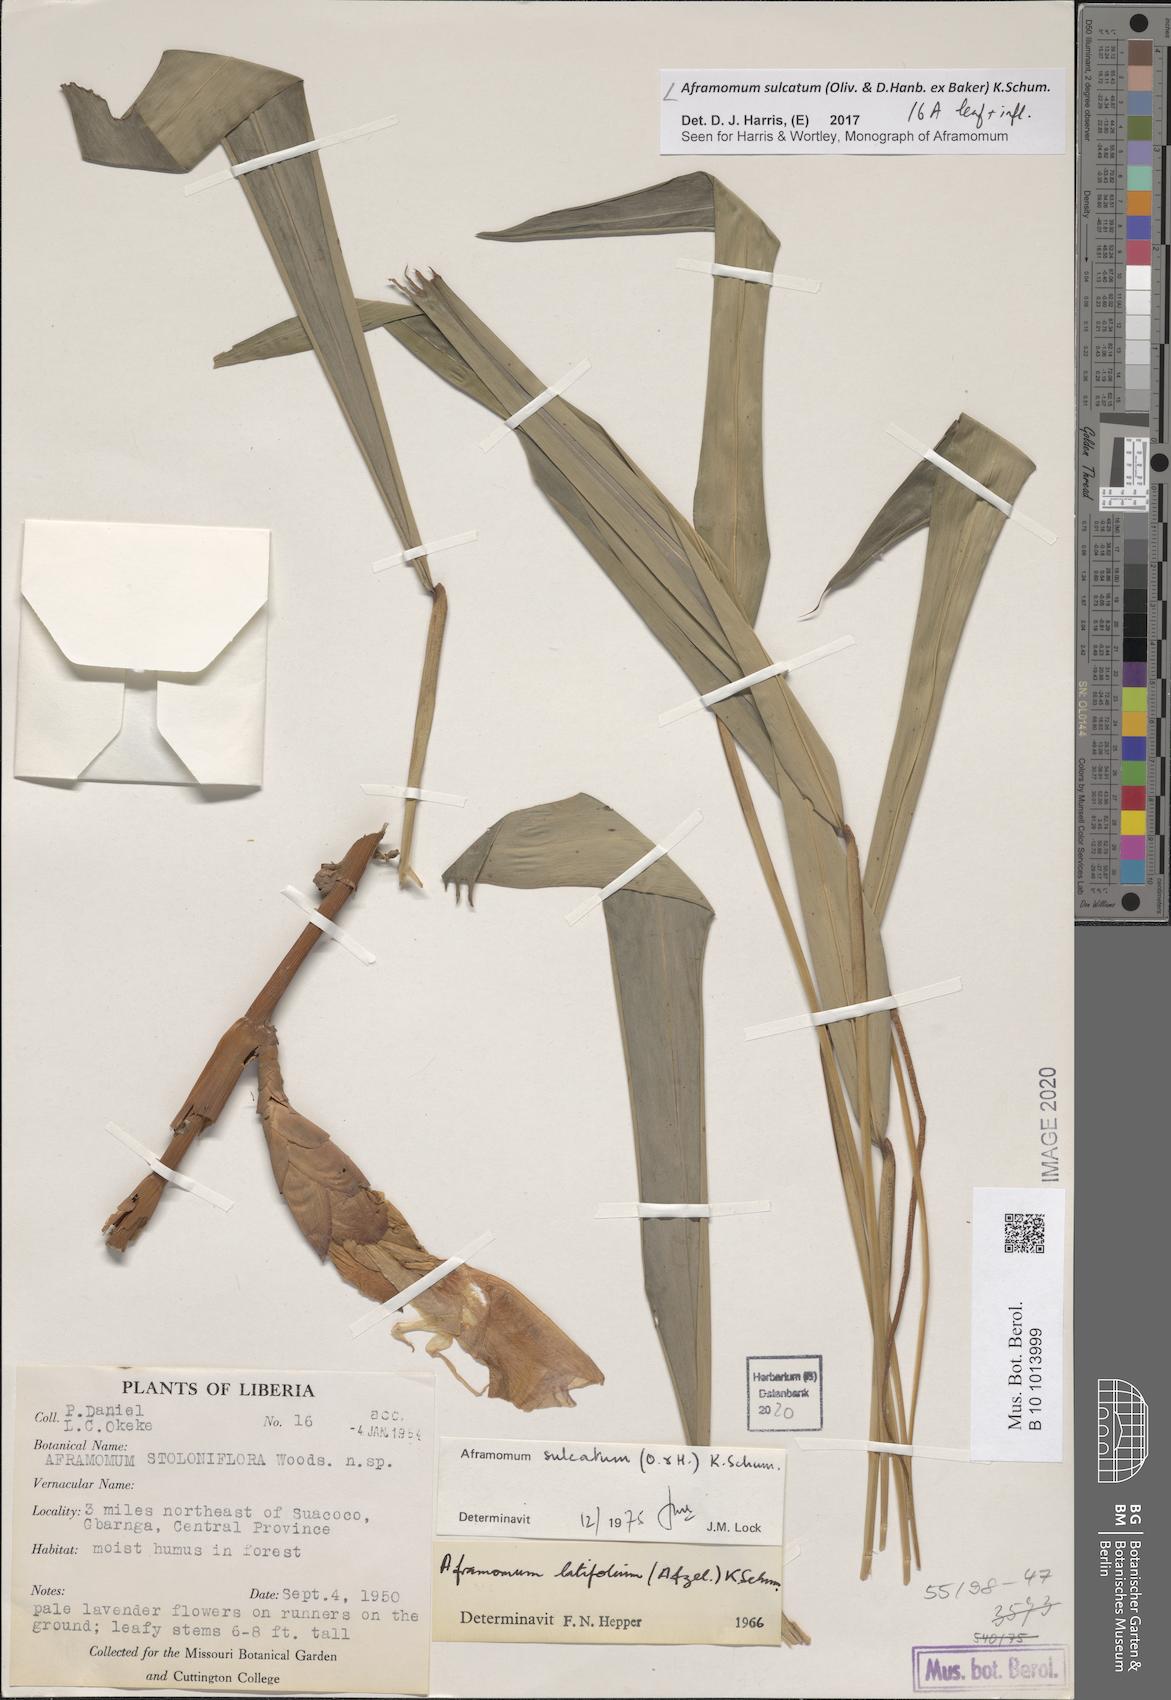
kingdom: Plantae
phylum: Tracheophyta
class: Liliopsida
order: Zingiberales
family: Zingiberaceae
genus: Aframomum
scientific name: Aframomum alboviolaceum
